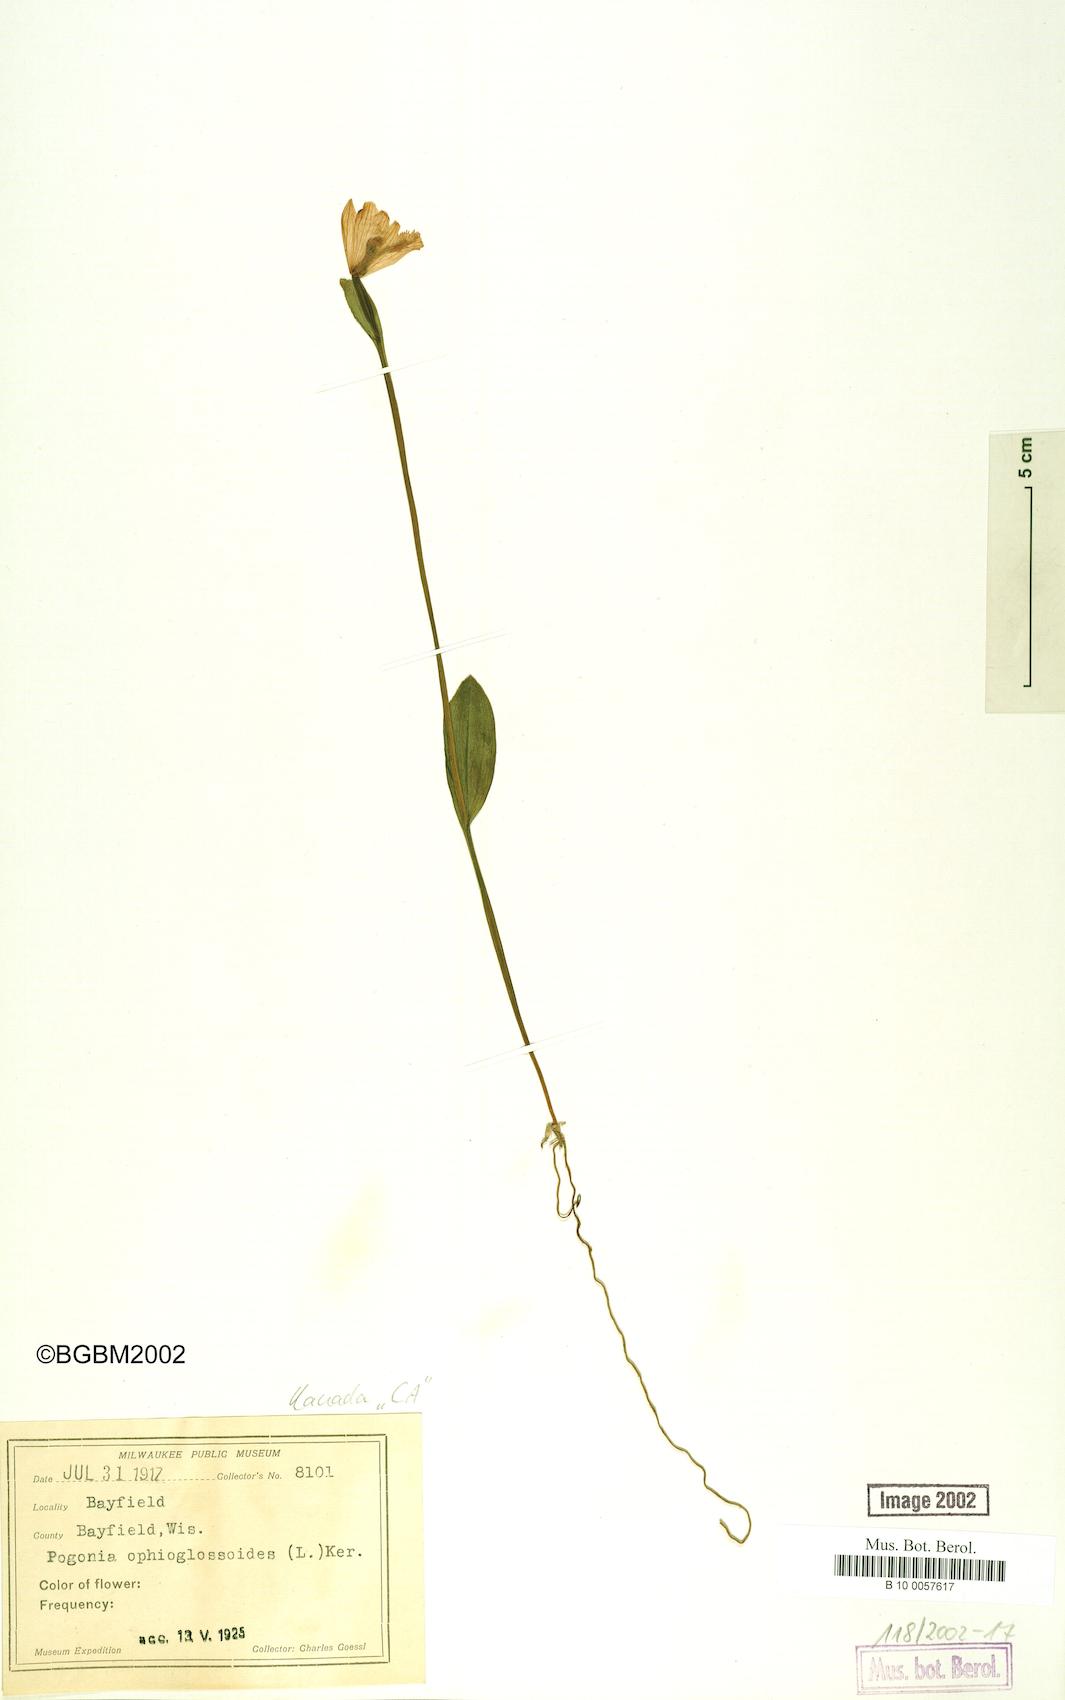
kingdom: Plantae
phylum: Tracheophyta
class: Liliopsida
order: Asparagales
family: Orchidaceae
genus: Pogonia
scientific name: Pogonia ophioglossoides
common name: Rose pogonia
